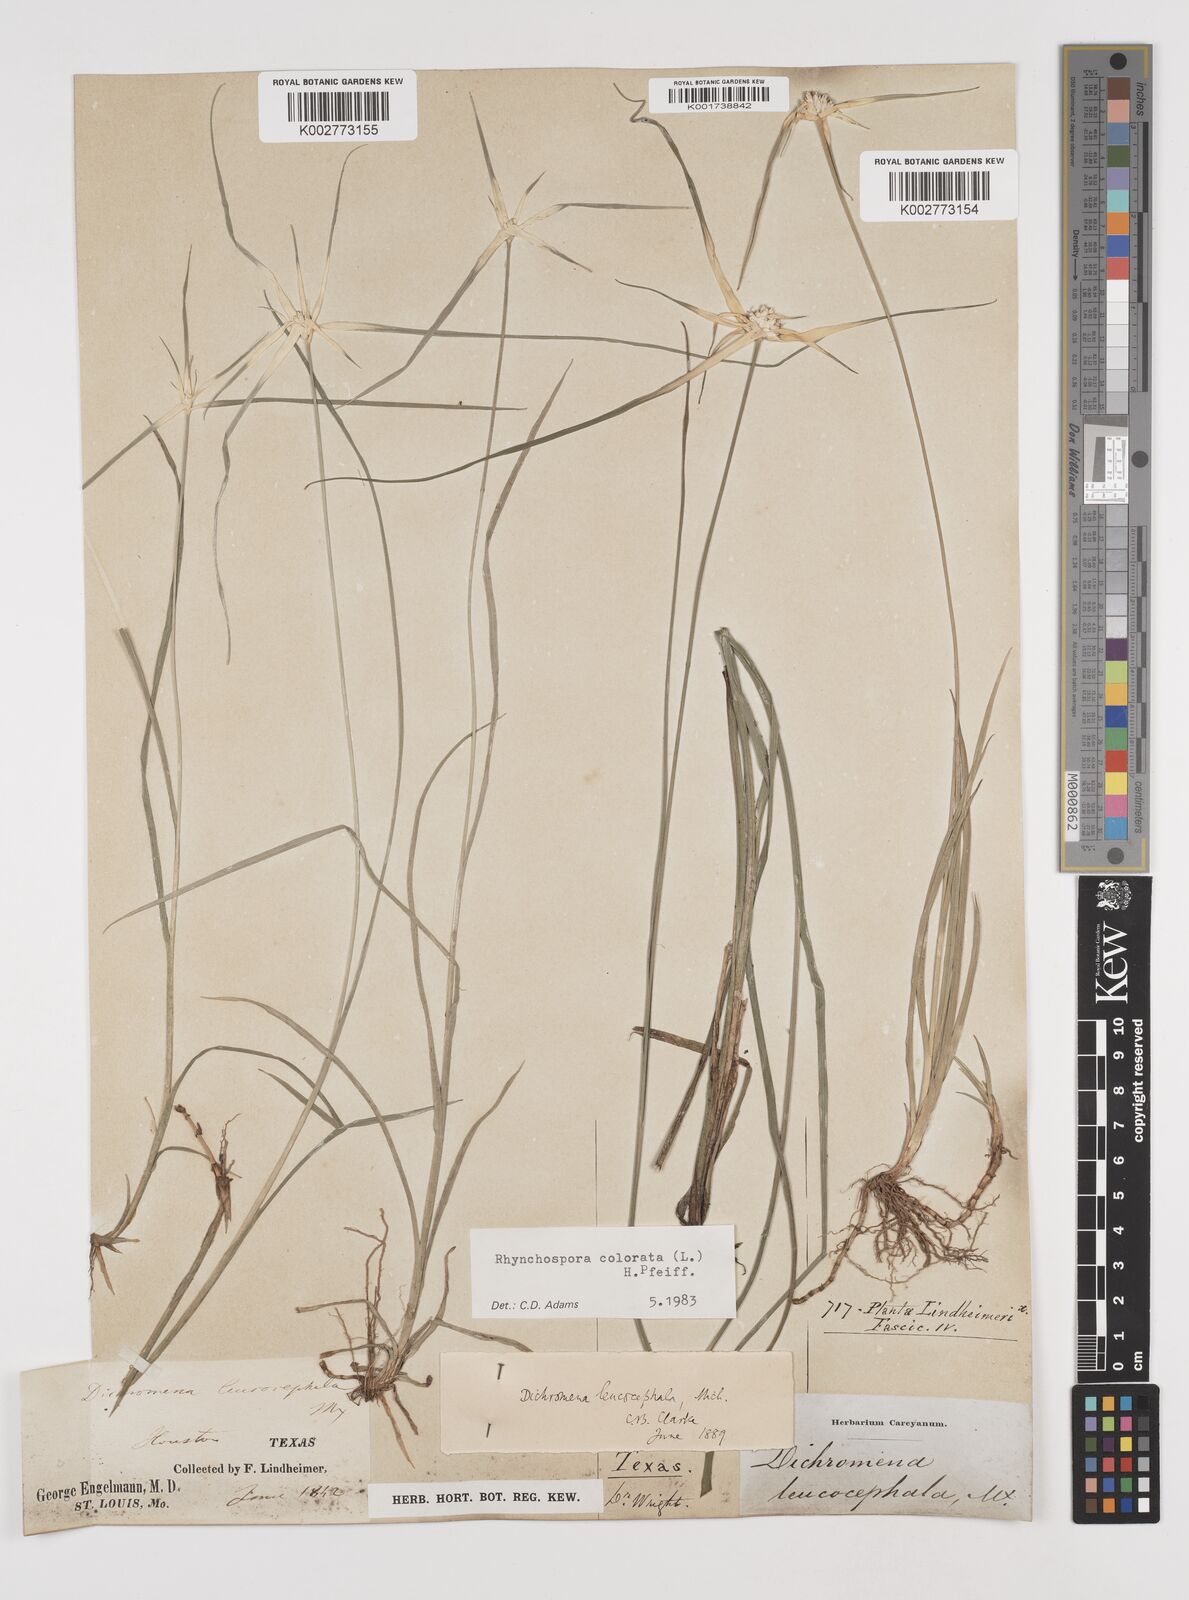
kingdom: Plantae
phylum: Tracheophyta
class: Liliopsida
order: Poales
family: Cyperaceae
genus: Rhynchospora
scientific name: Rhynchospora colorata
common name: Star sedge
